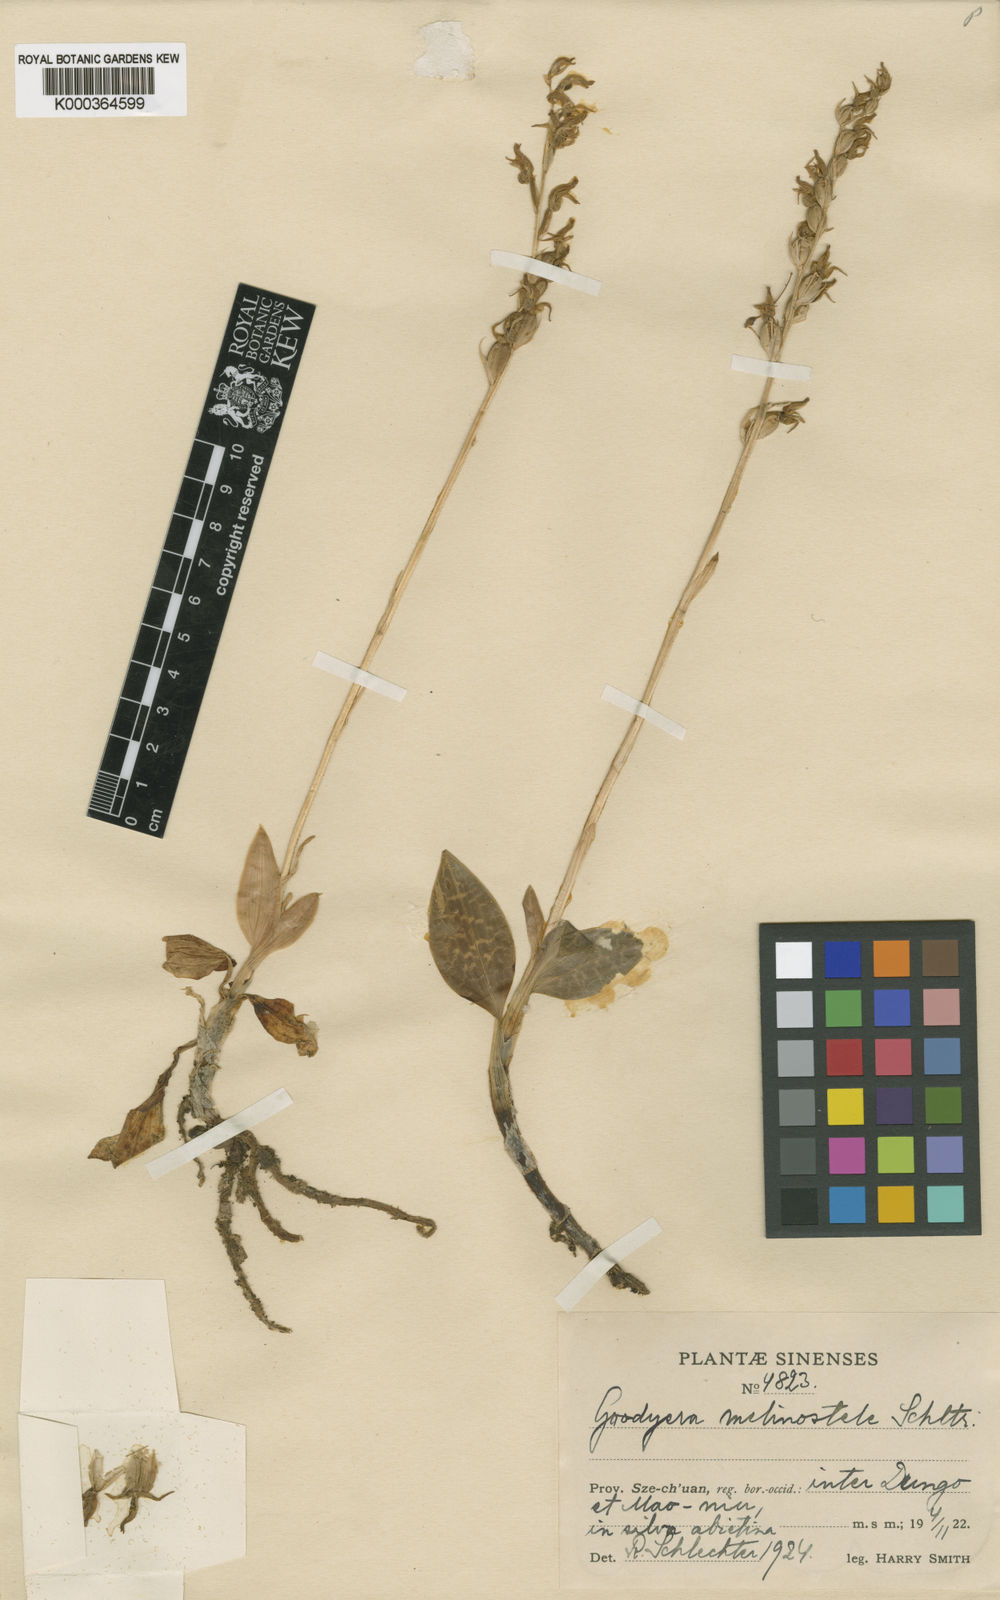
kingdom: Plantae
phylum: Tracheophyta
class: Liliopsida
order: Asparagales
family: Orchidaceae
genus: Goodyera
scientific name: Goodyera schlechtendaliana
